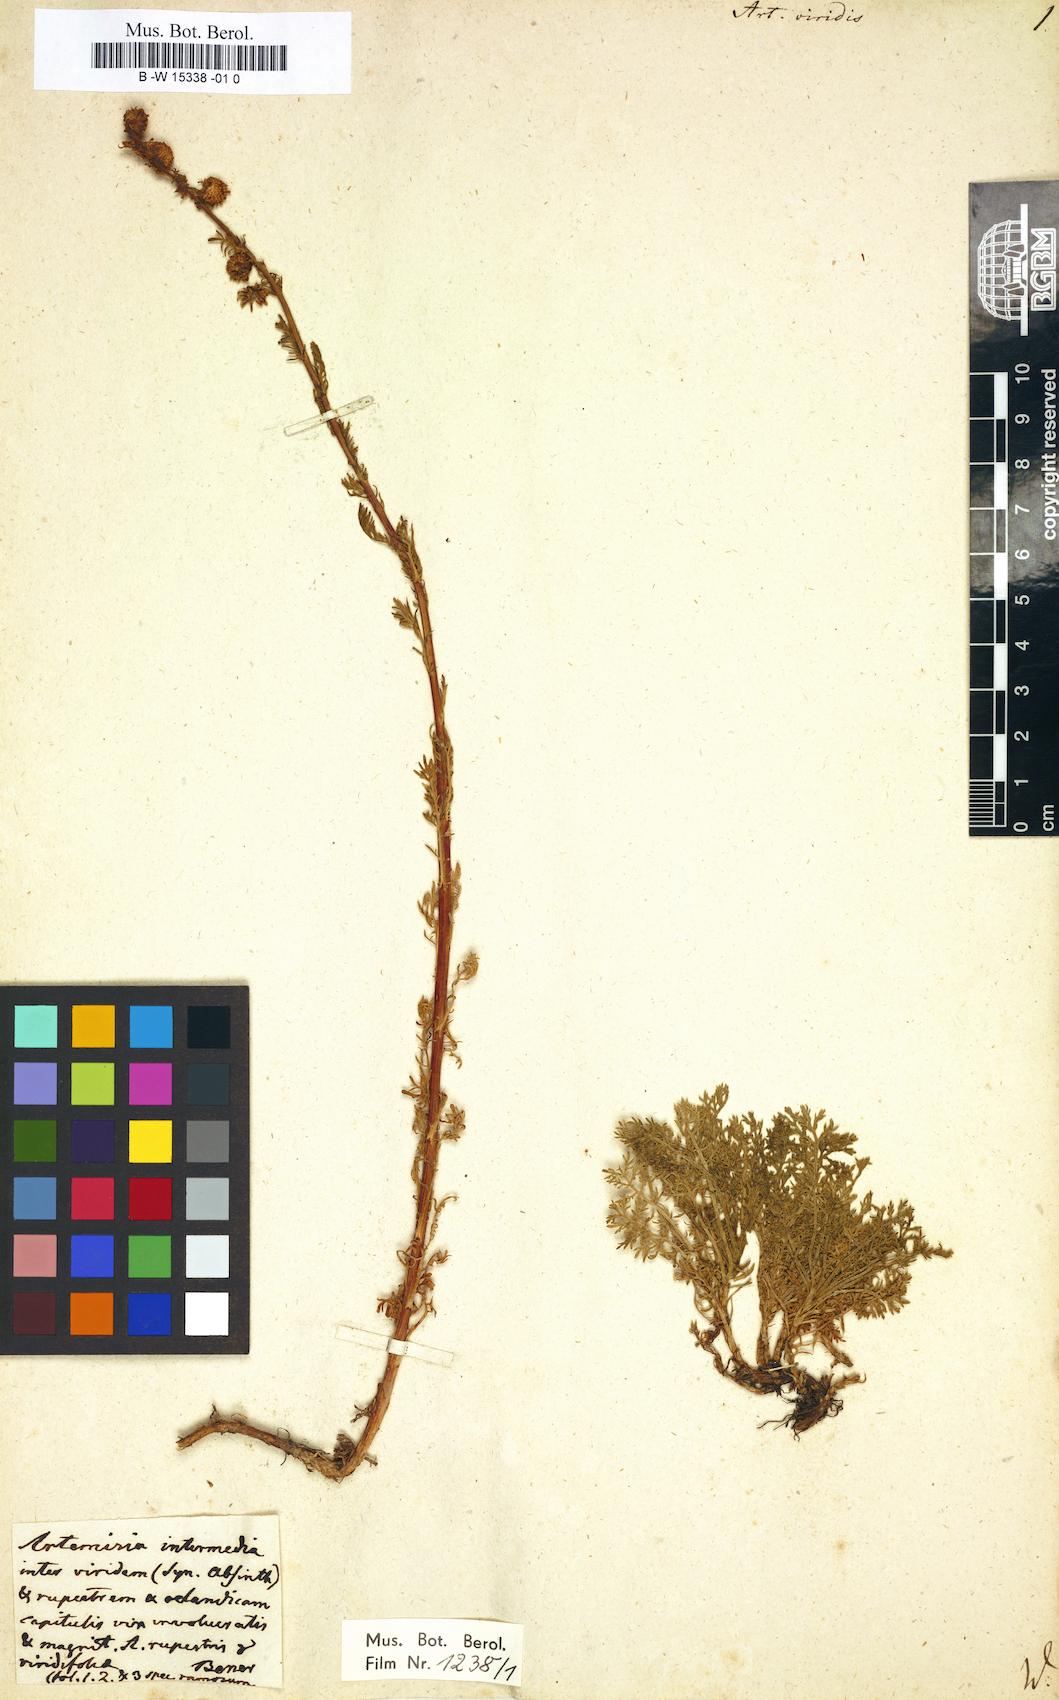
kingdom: Plantae
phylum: Tracheophyta
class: Magnoliopsida
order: Asterales
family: Asteraceae
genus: Artemisia
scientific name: Artemisia viridis
